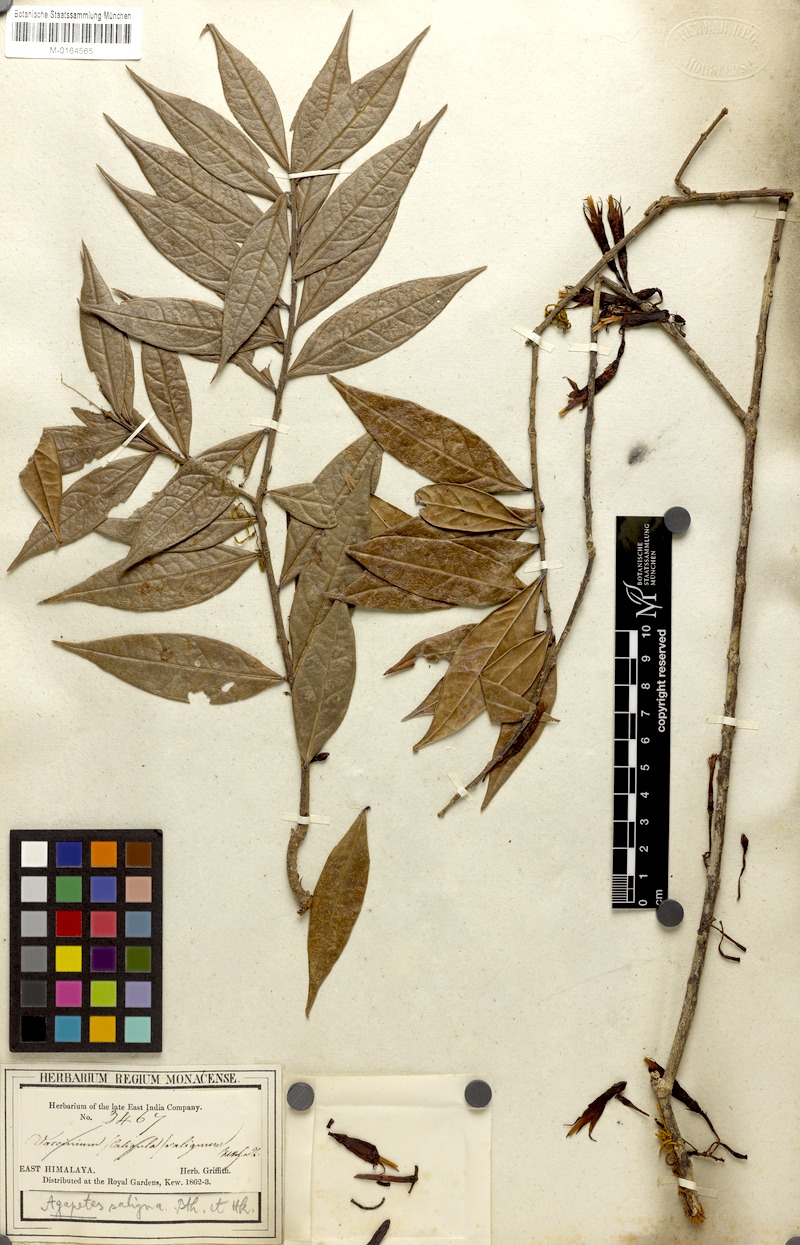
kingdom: Plantae
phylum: Tracheophyta
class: Magnoliopsida
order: Ericales
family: Ericaceae
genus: Agapetes
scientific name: Agapetes saligna
